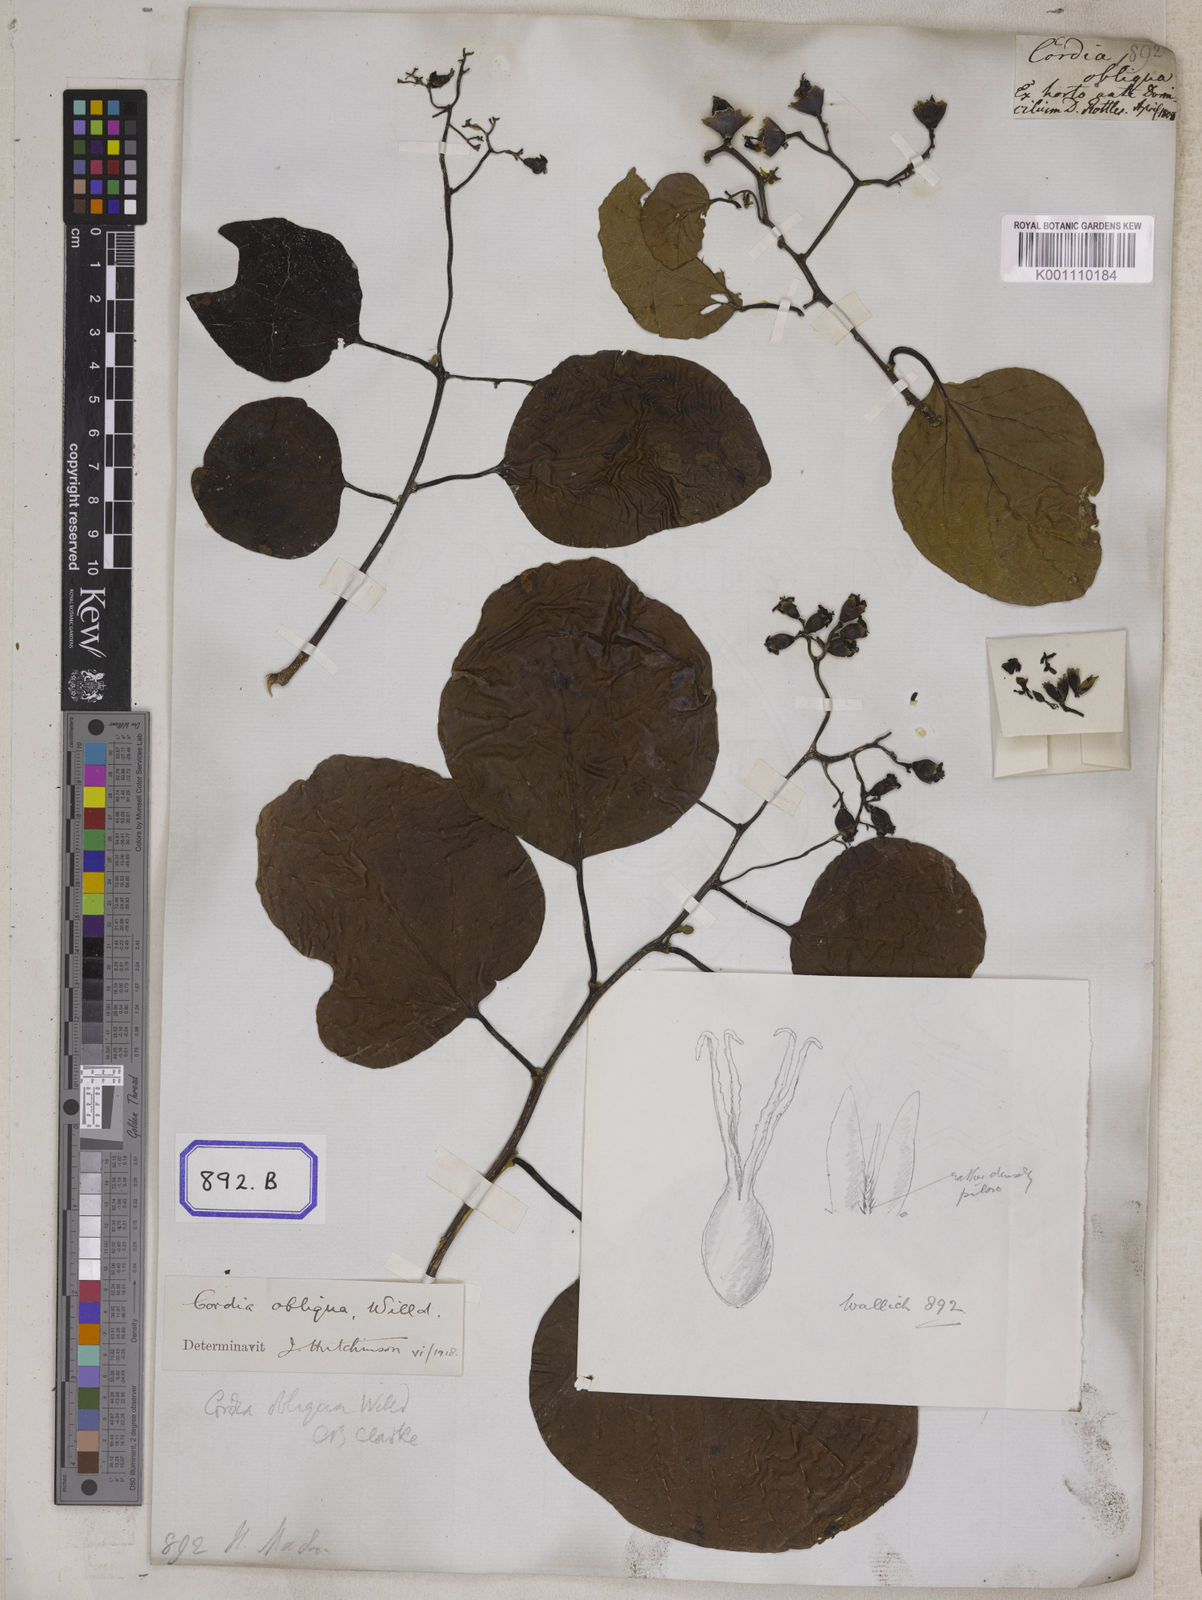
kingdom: Plantae
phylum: Tracheophyta
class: Magnoliopsida
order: Boraginales
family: Cordiaceae
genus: Cordia
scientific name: Cordia
